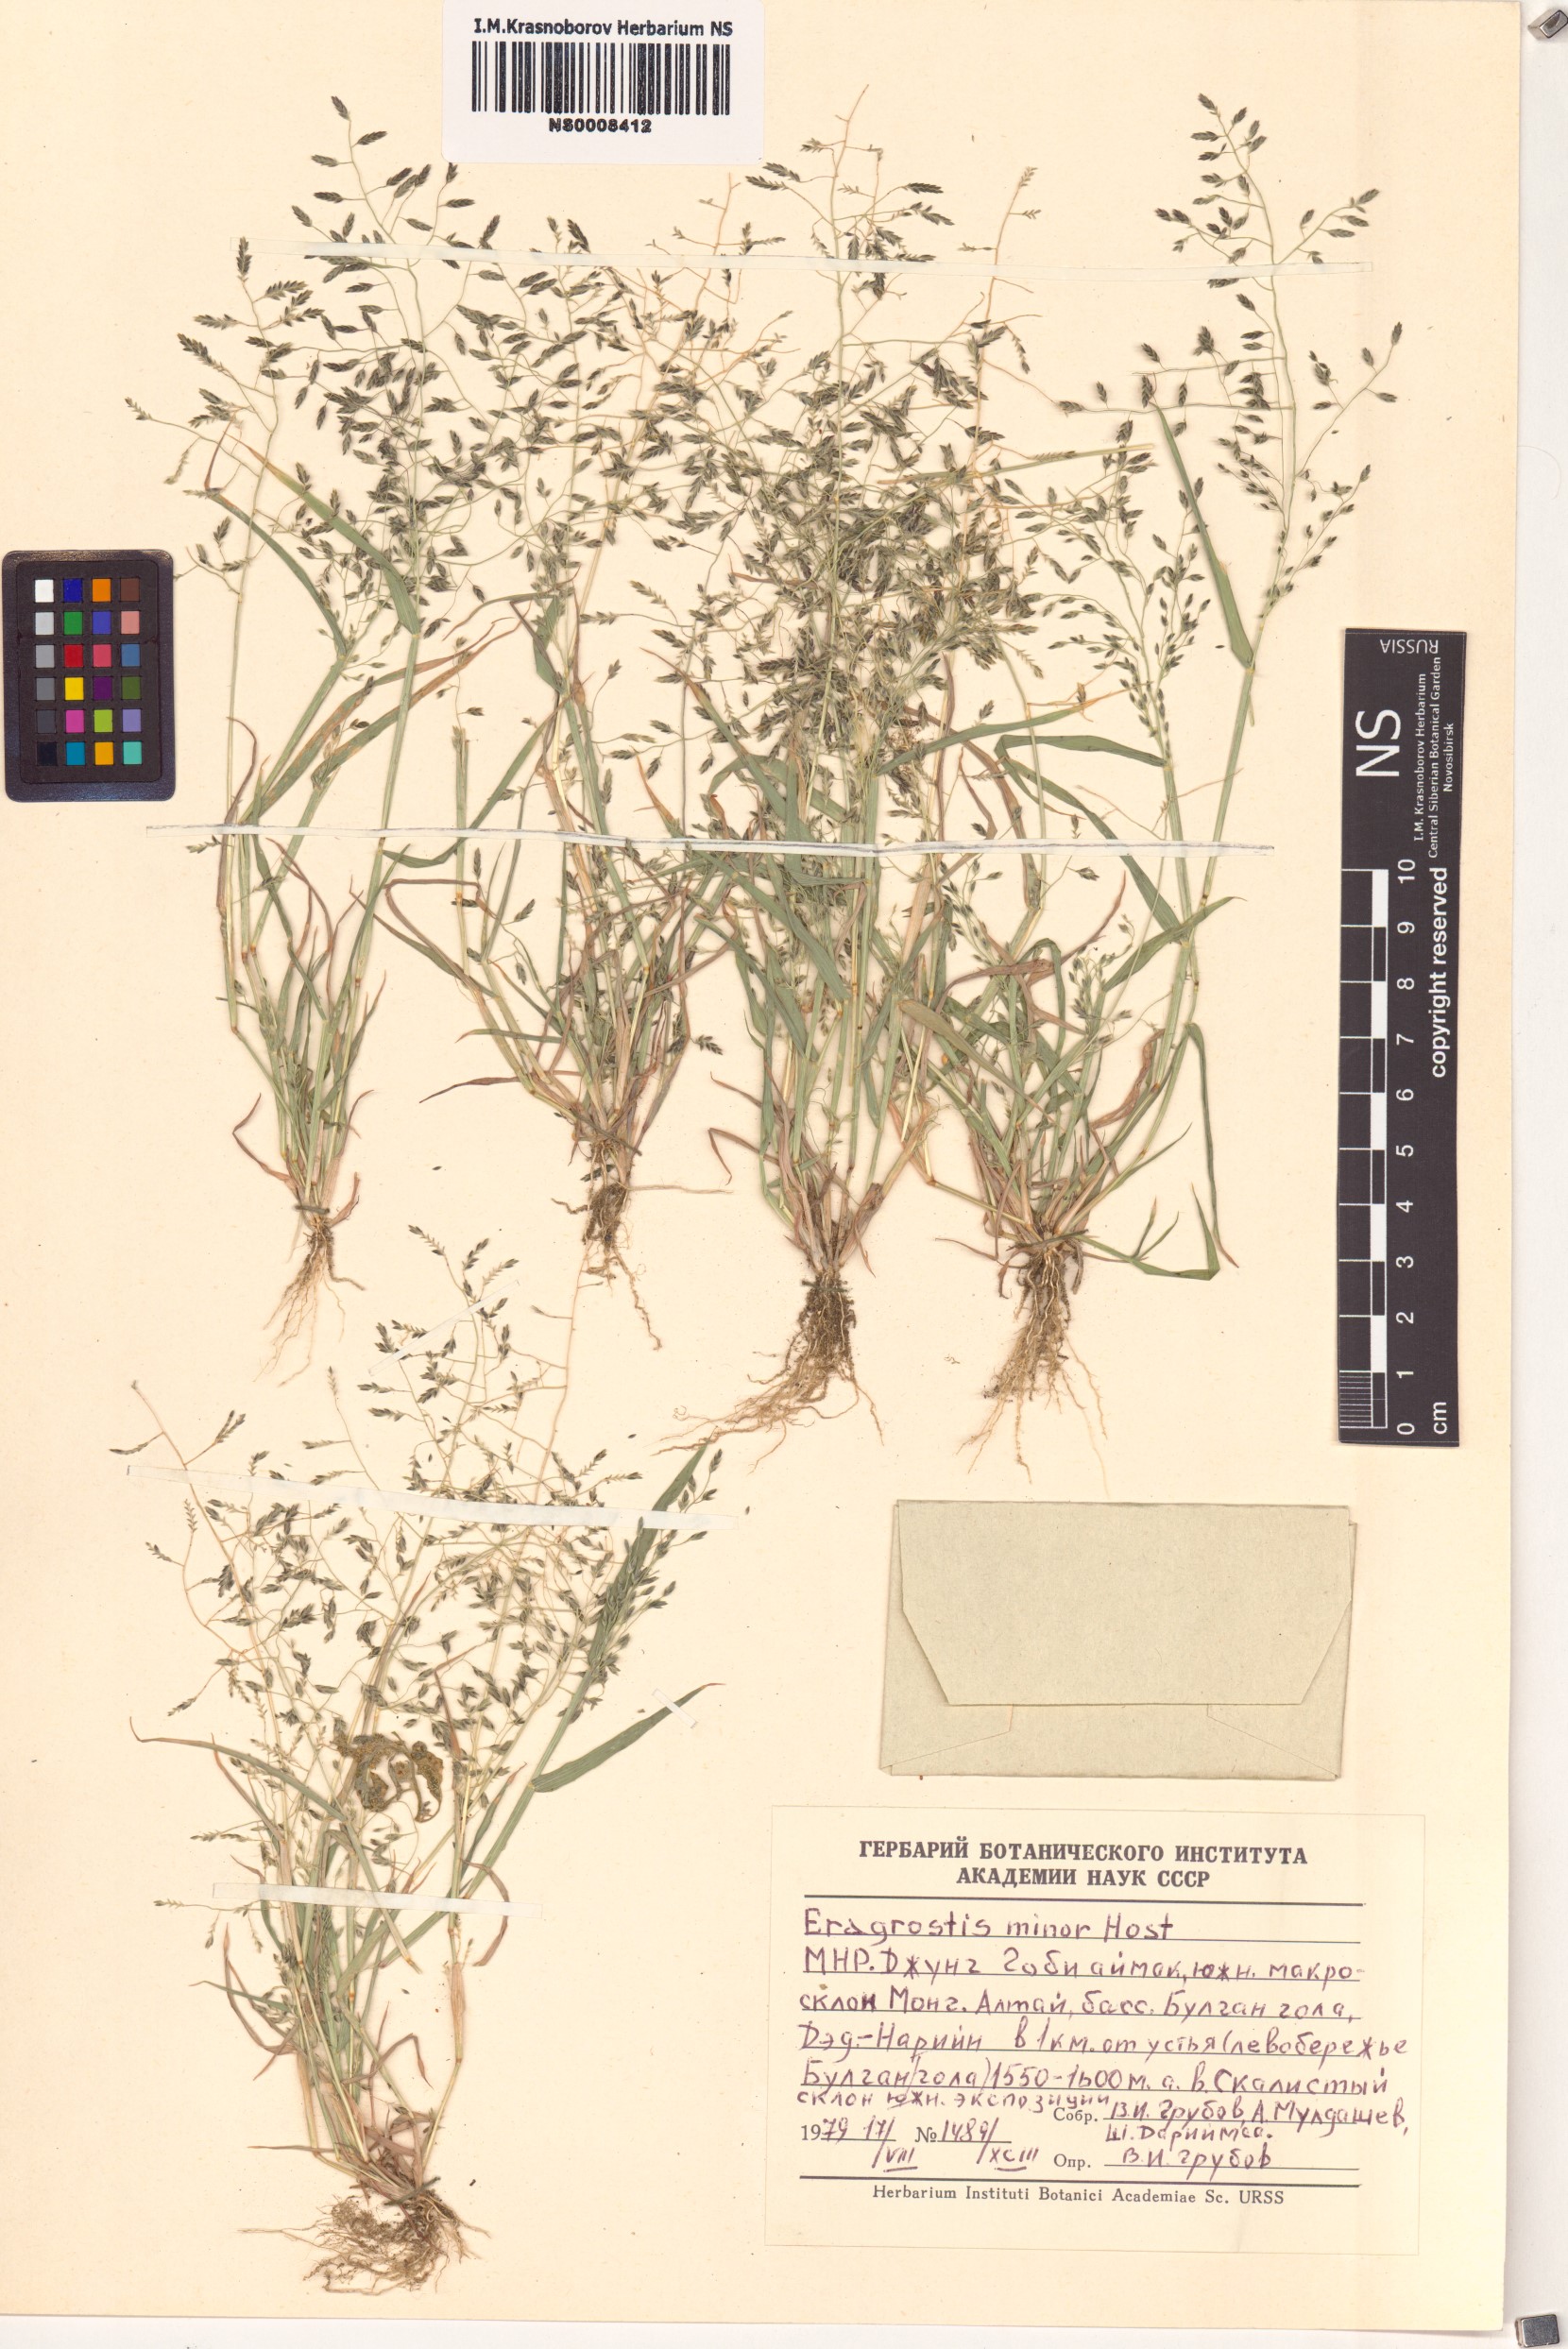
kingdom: Plantae
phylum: Tracheophyta
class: Liliopsida
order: Poales
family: Poaceae
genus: Eragrostis
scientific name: Eragrostis minor
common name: Small love-grass
